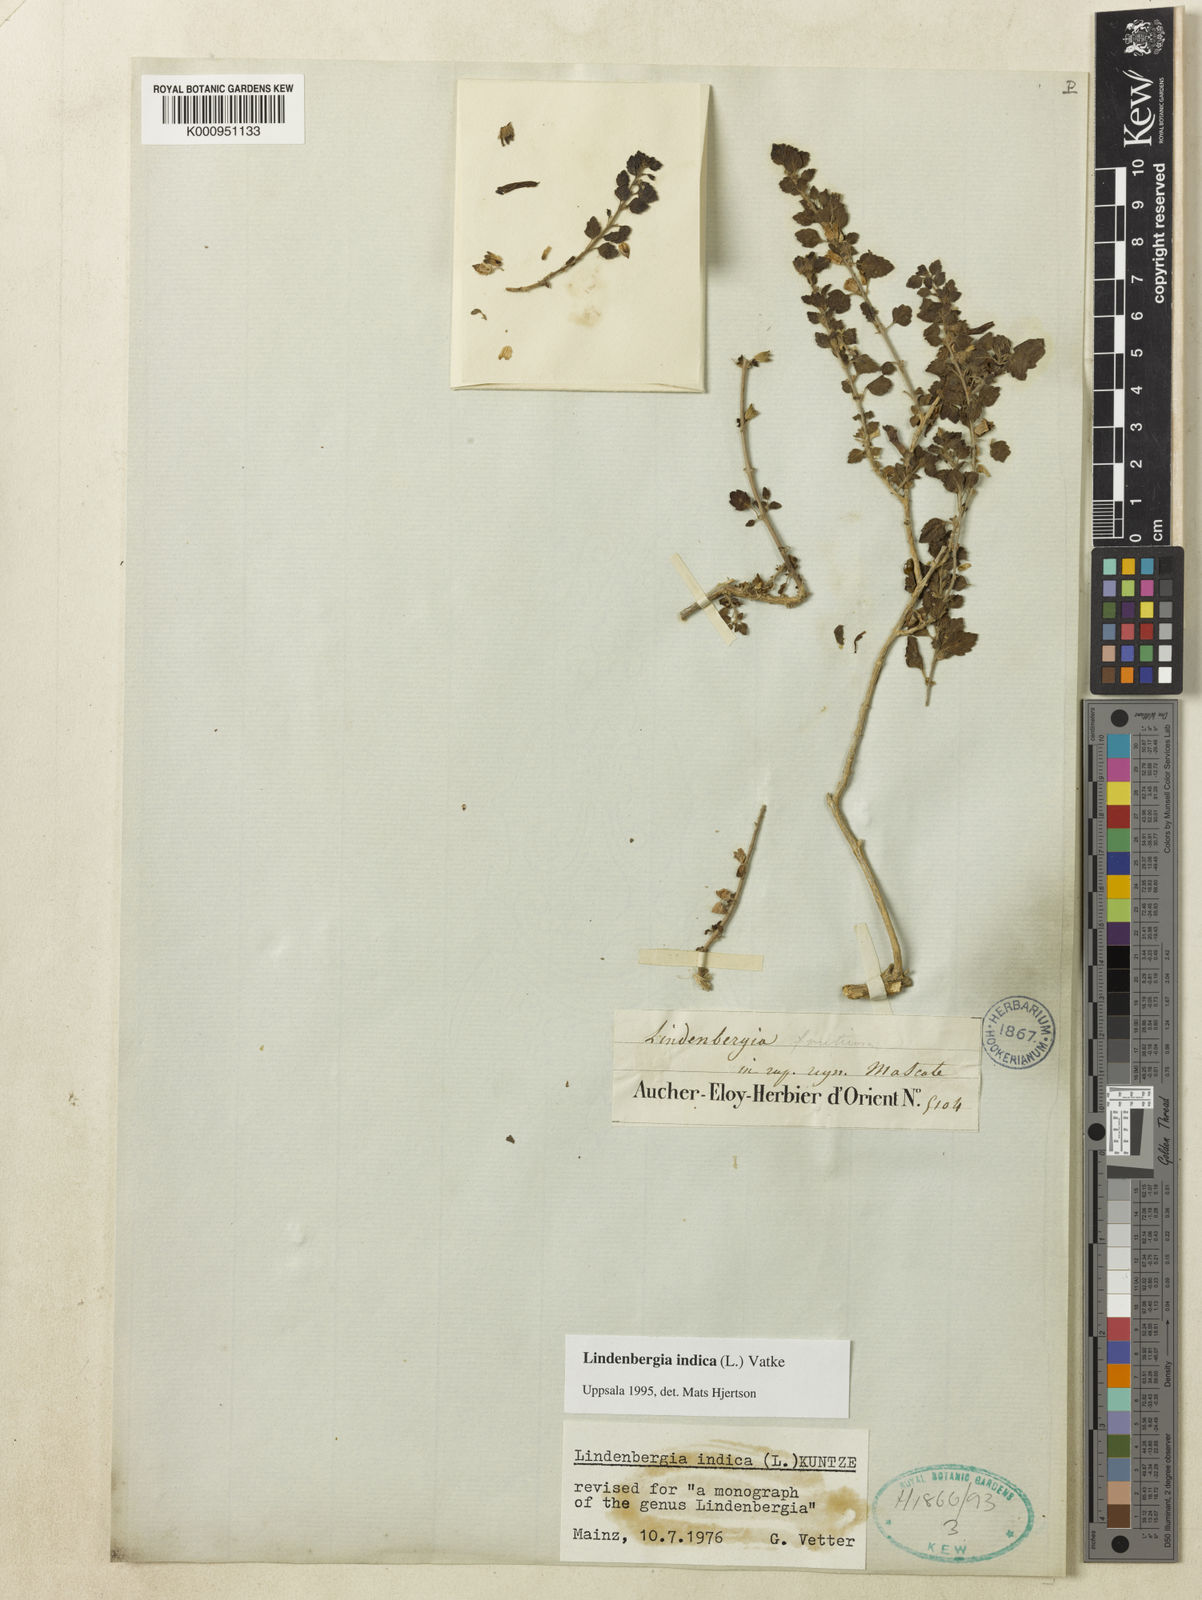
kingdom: Plantae
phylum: Tracheophyta
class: Magnoliopsida
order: Lamiales
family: Orobanchaceae
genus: Lindenbergia
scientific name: Lindenbergia indica
